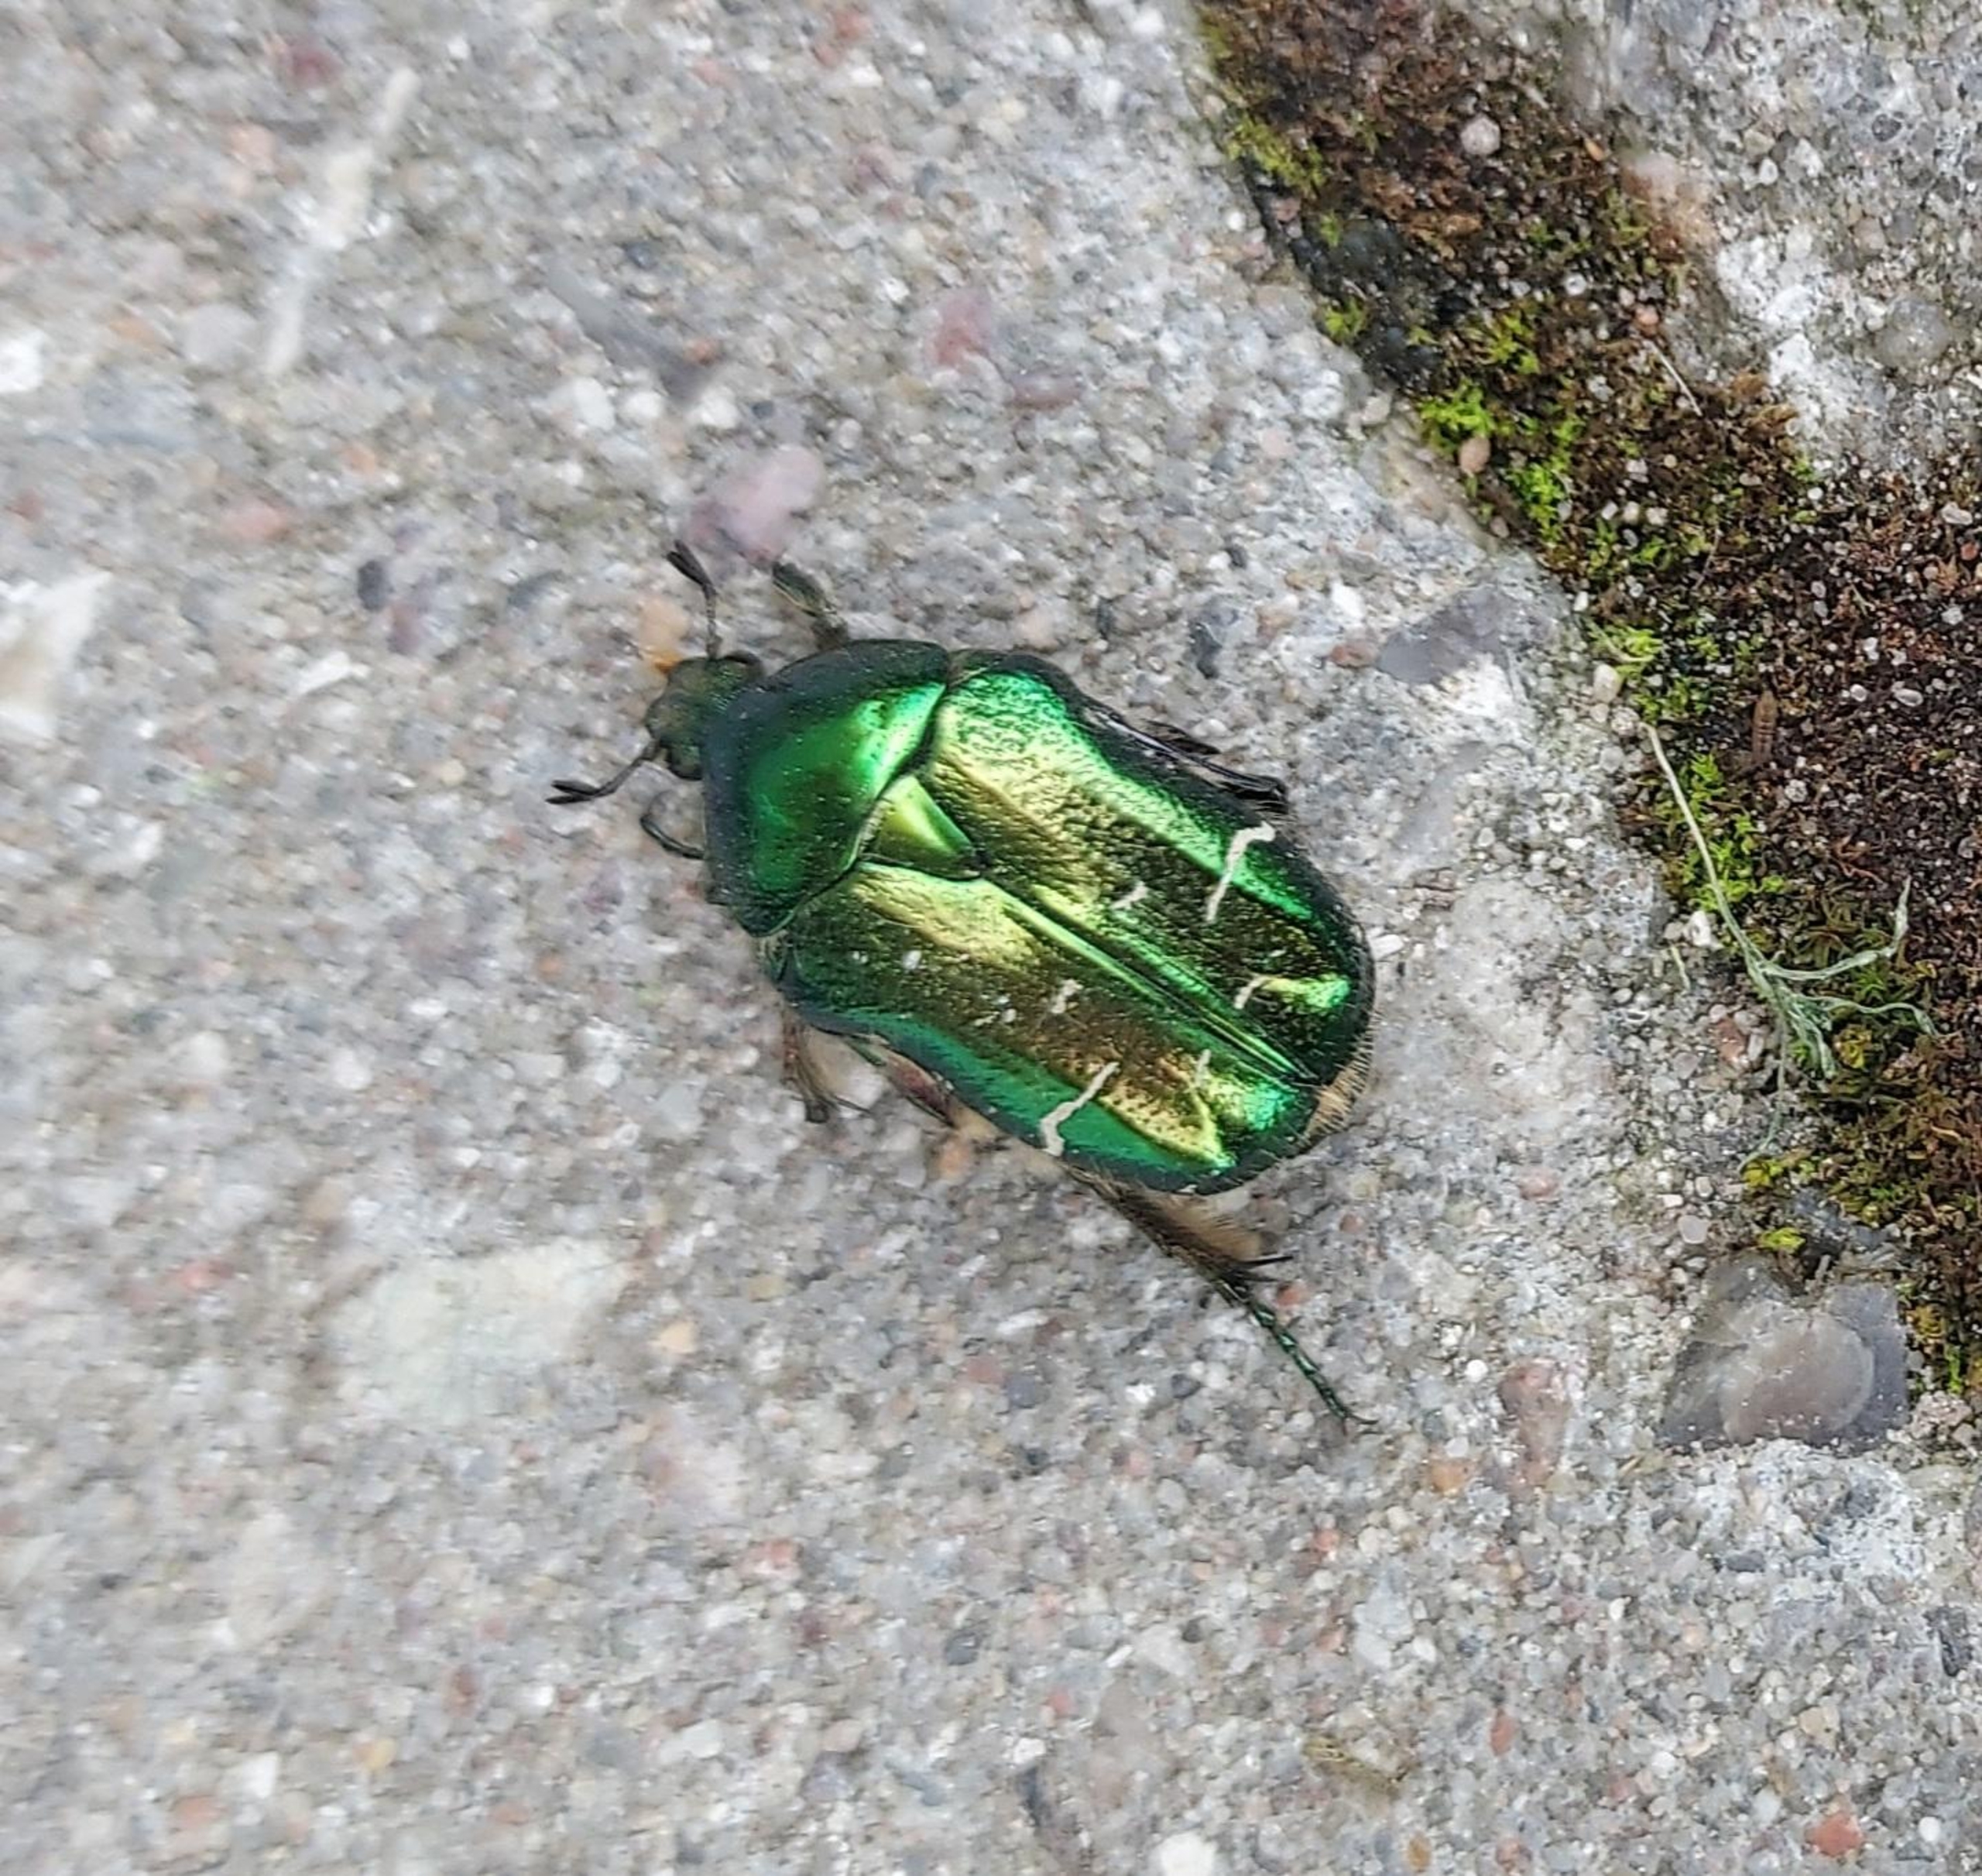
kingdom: Animalia
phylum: Arthropoda
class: Insecta
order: Coleoptera
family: Scarabaeidae
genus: Cetonia
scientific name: Cetonia aurata
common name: Grøn guldbasse
